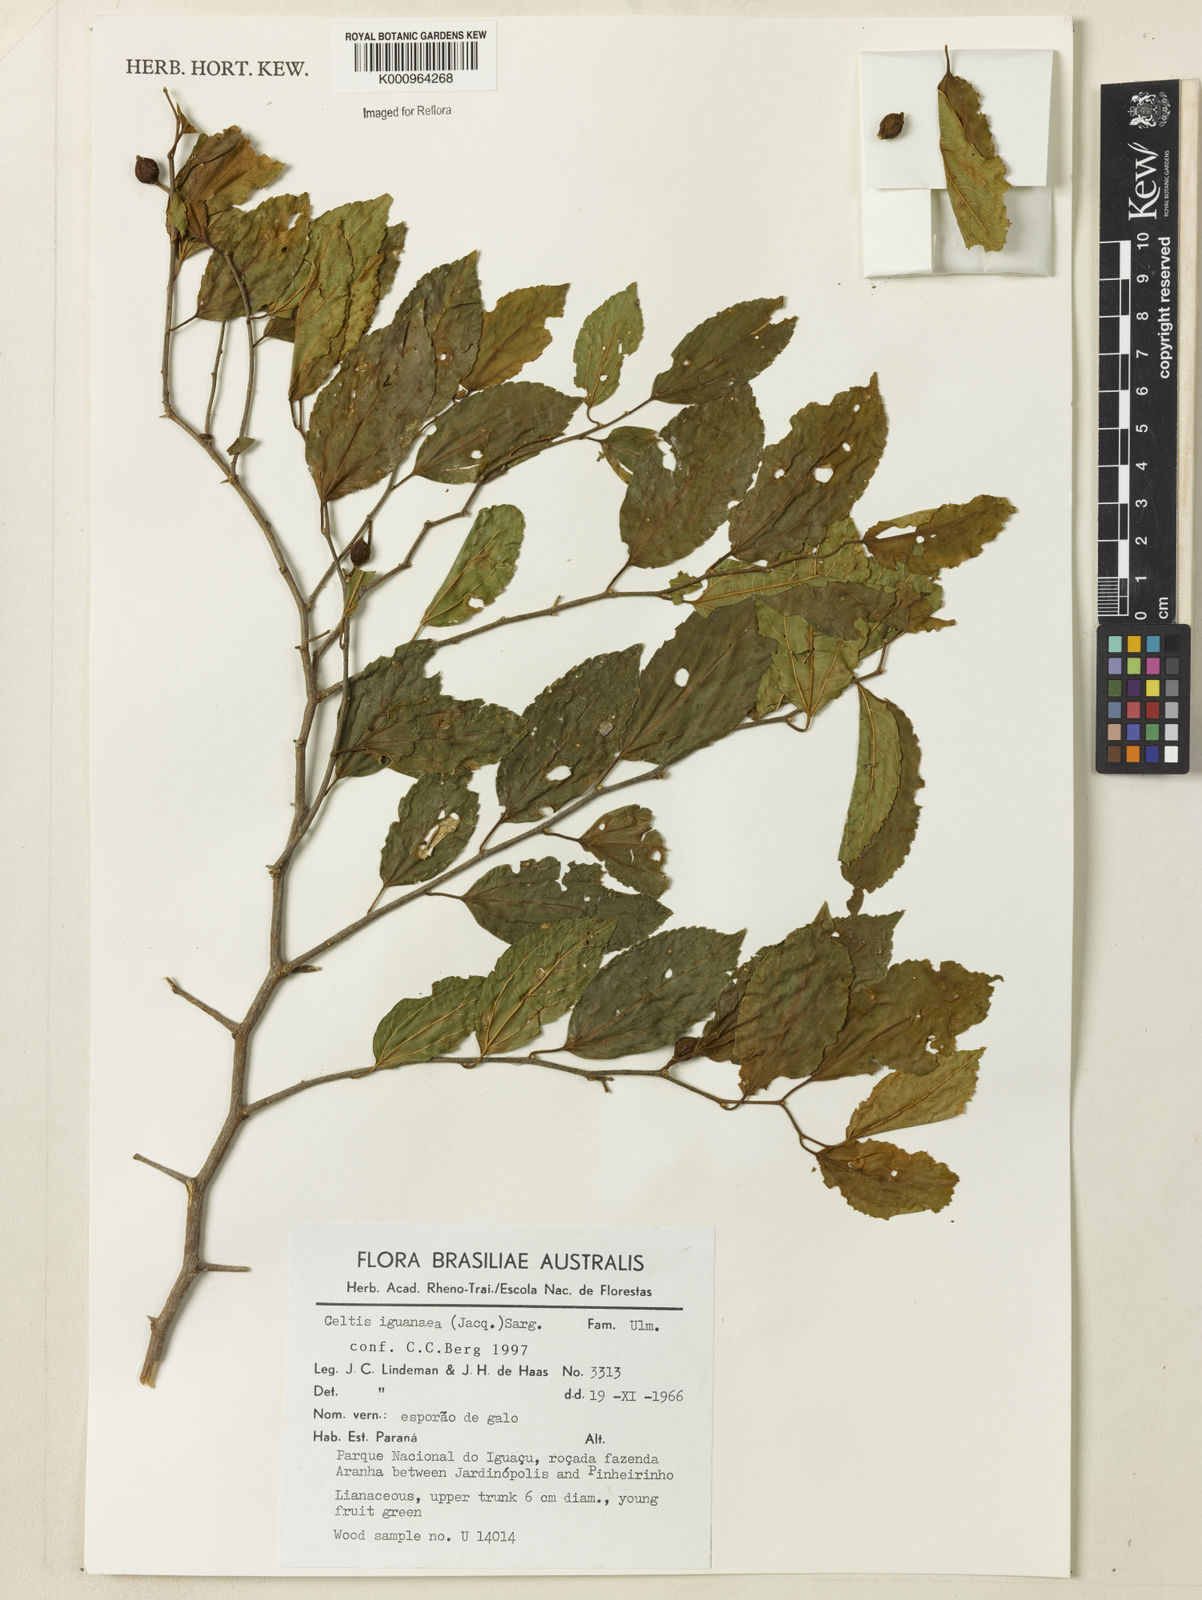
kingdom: Plantae
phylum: Tracheophyta
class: Magnoliopsida
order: Rosales
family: Cannabaceae
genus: Celtis
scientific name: Celtis iguanaea
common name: Iguana hackberry
